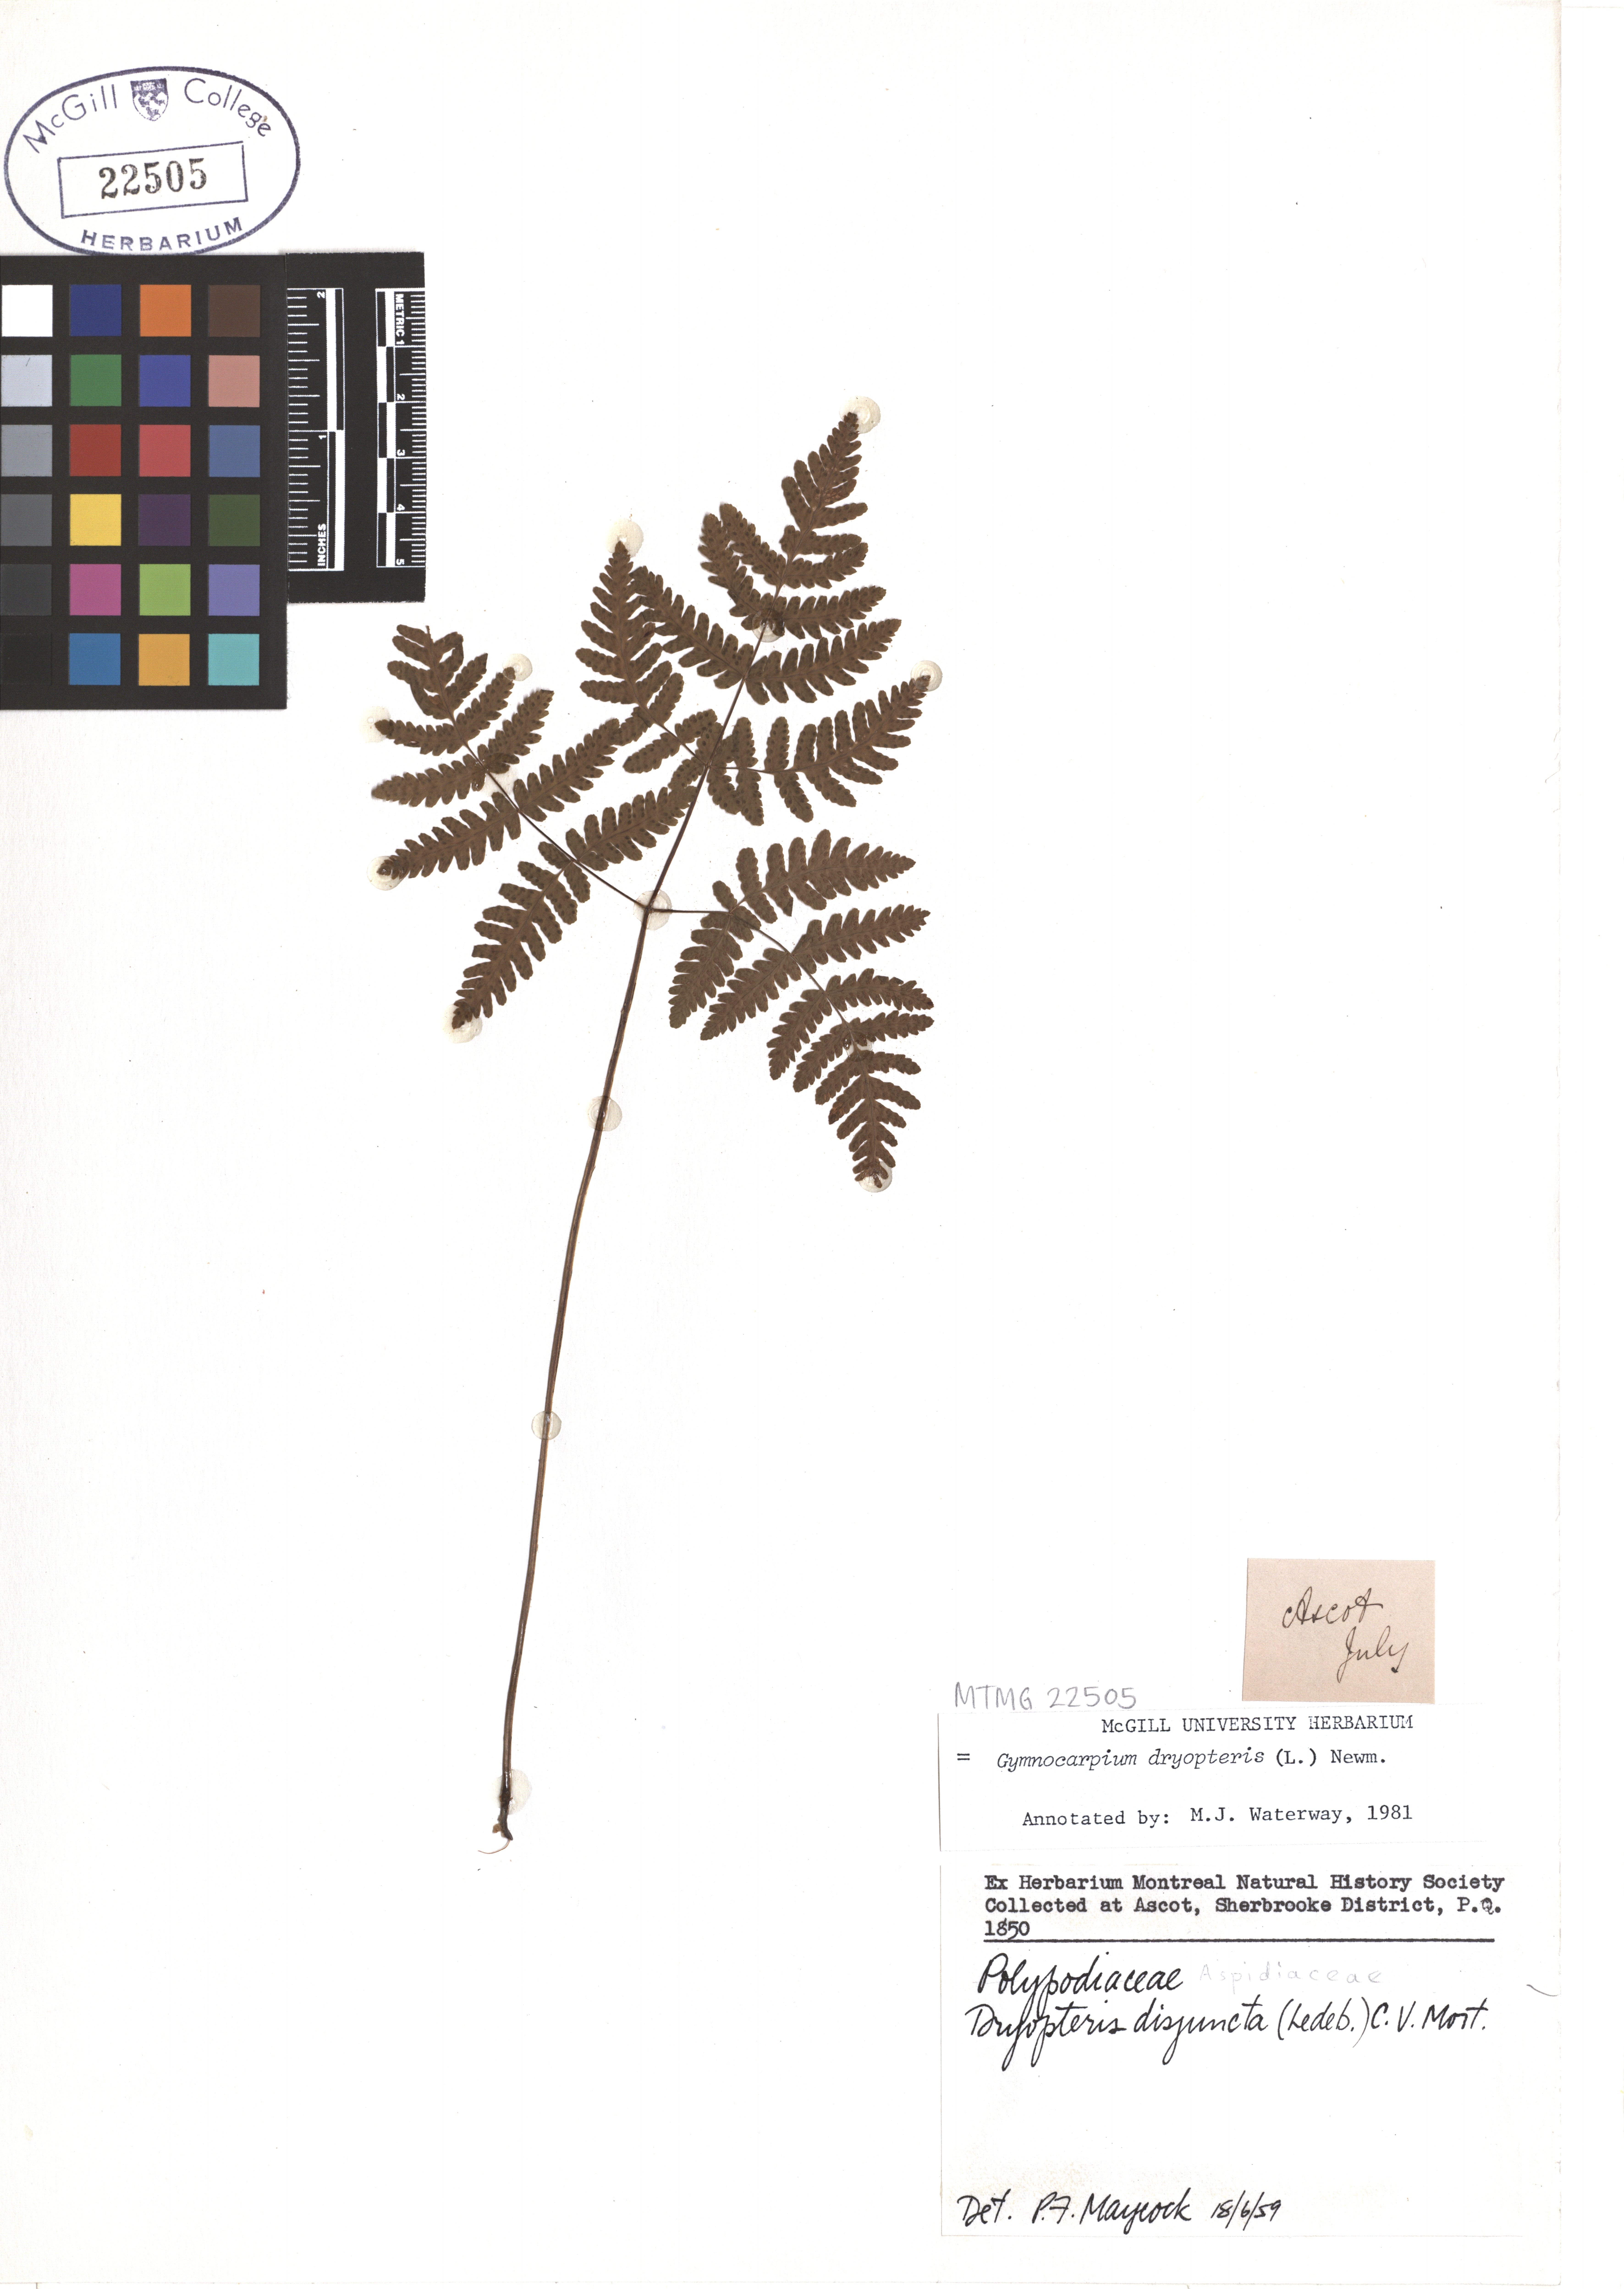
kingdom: Plantae
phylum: Tracheophyta
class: Polypodiopsida
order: Polypodiales
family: Cystopteridaceae
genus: Gymnocarpium
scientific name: Gymnocarpium dryopteris
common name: Oak fern
